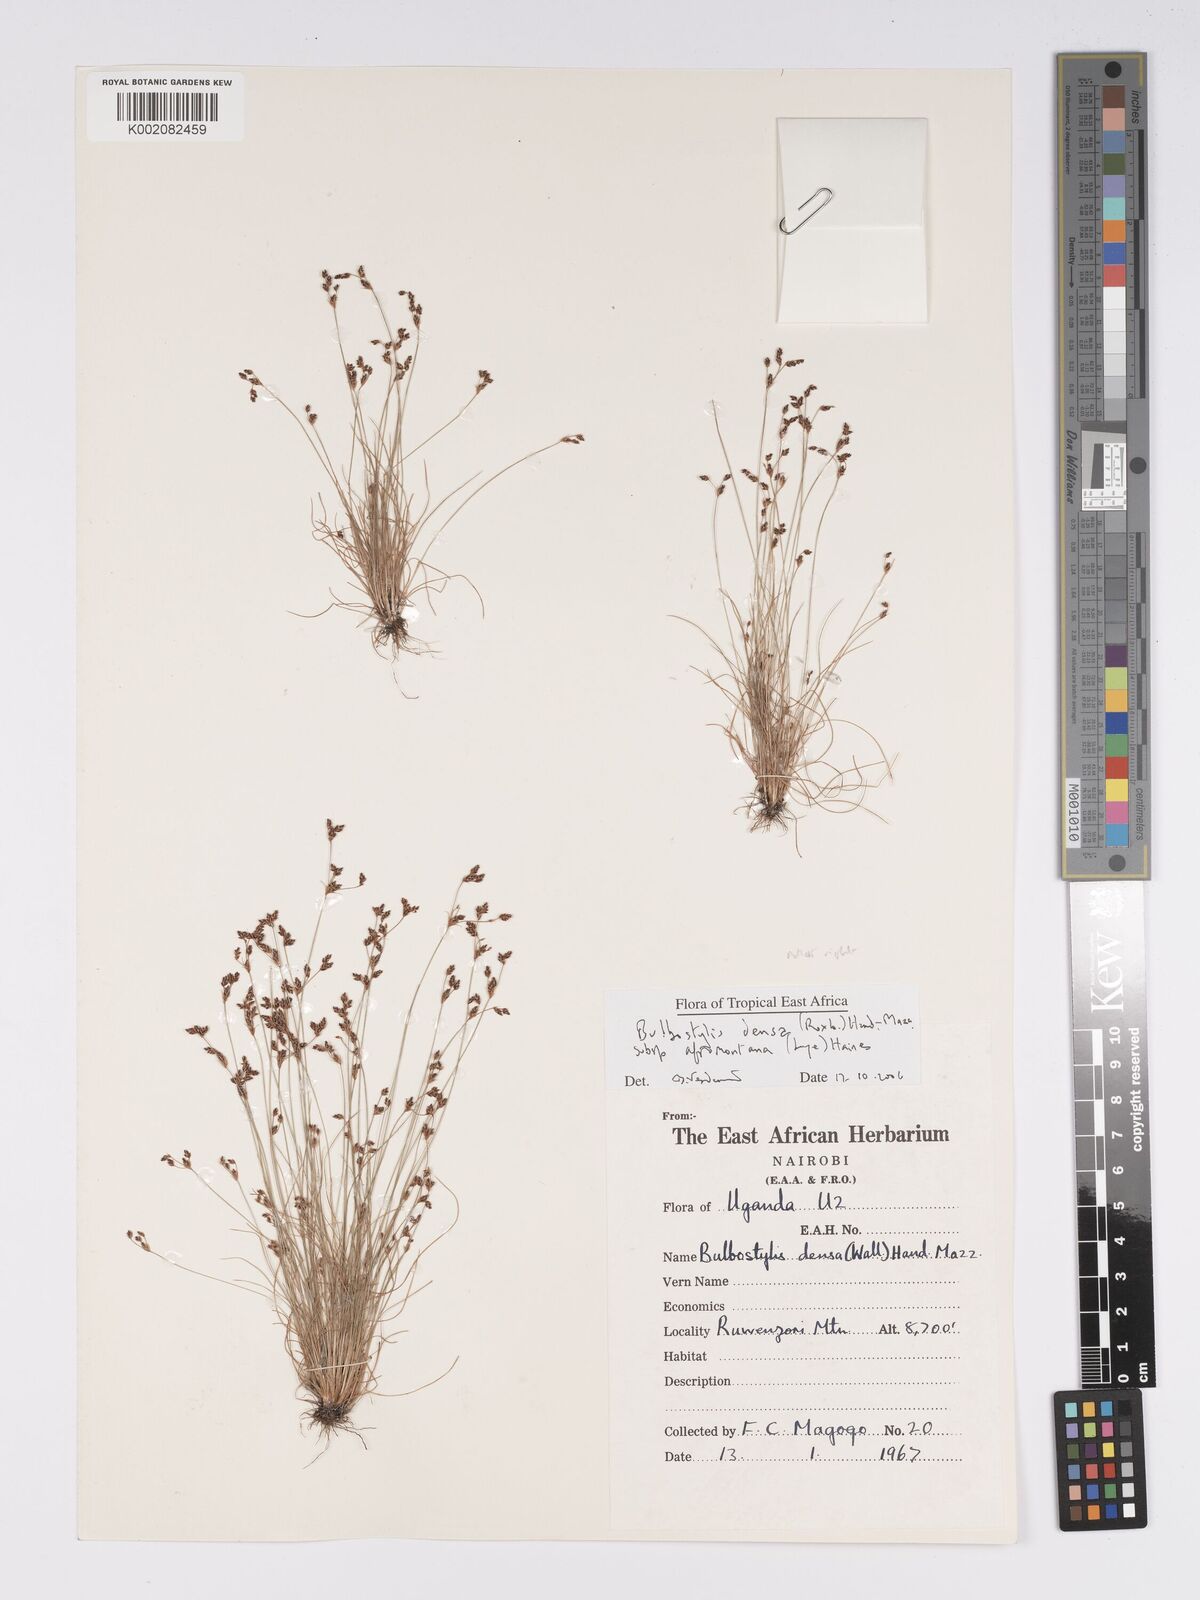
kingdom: Plantae
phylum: Tracheophyta
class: Liliopsida
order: Poales
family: Cyperaceae
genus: Bulbostylis
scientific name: Bulbostylis densa
